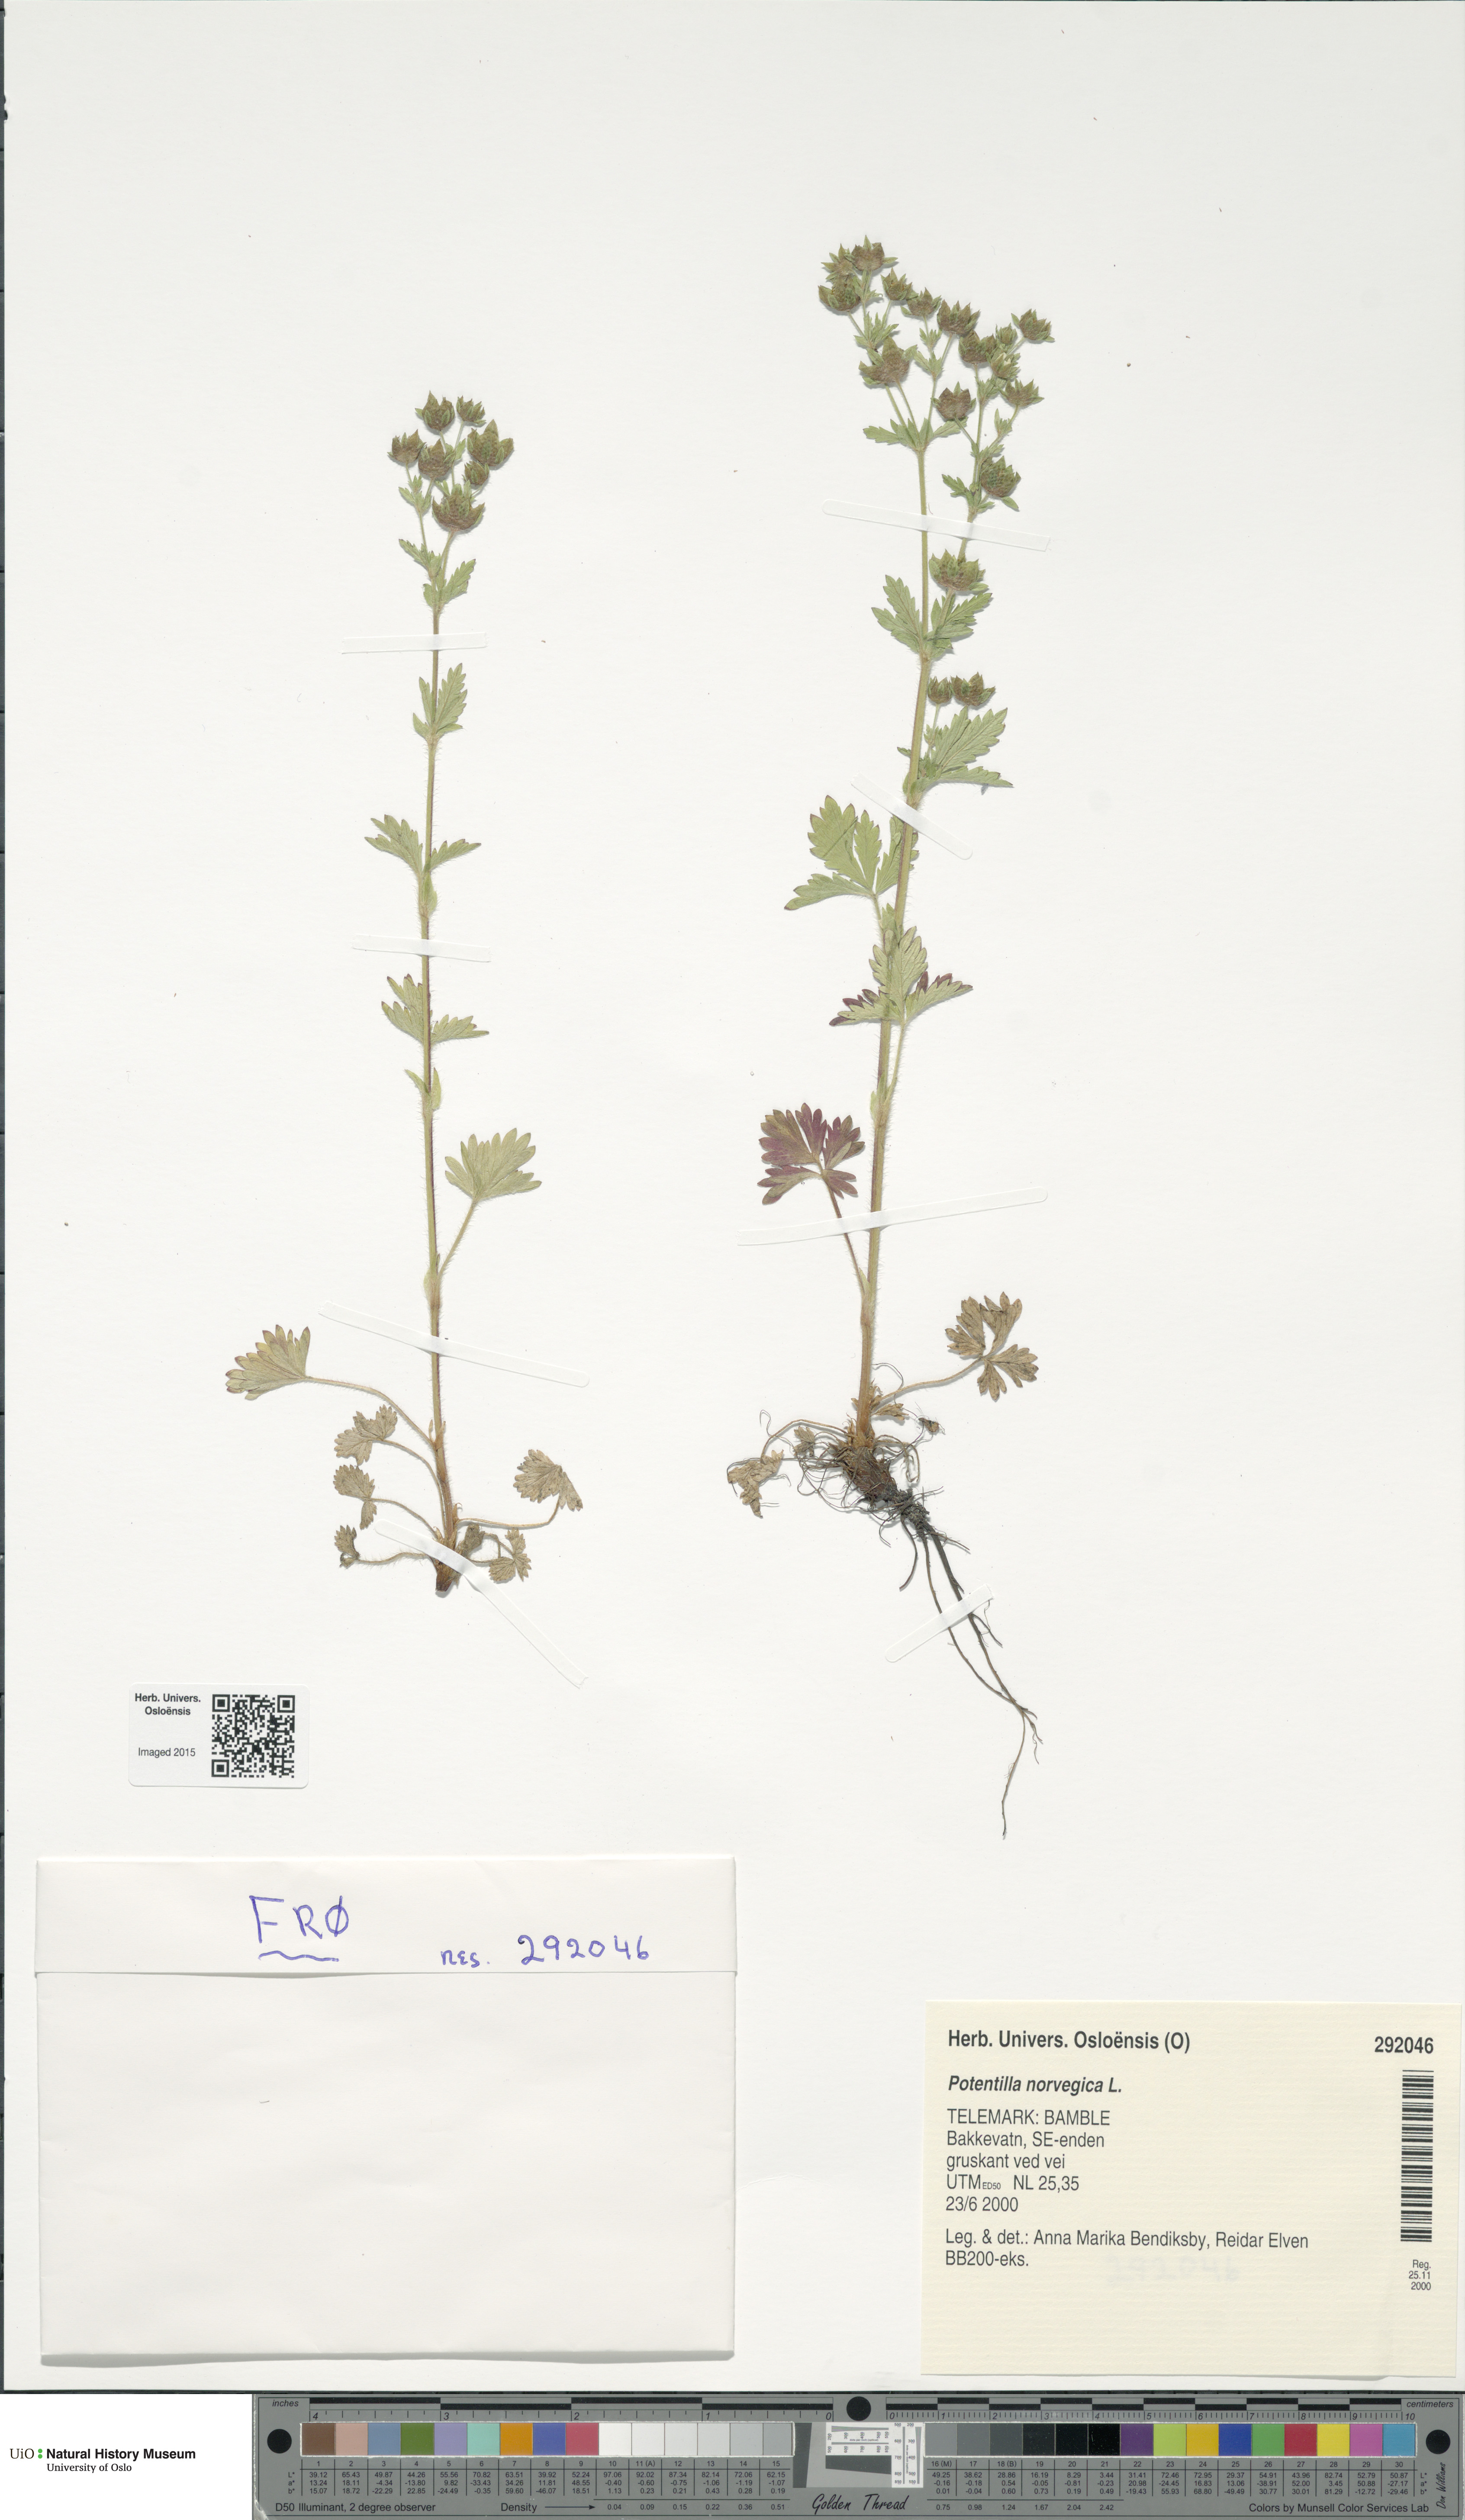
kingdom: Plantae
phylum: Tracheophyta
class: Magnoliopsida
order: Rosales
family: Rosaceae
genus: Potentilla
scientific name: Potentilla norvegica
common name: Ternate-leaved cinquefoil
